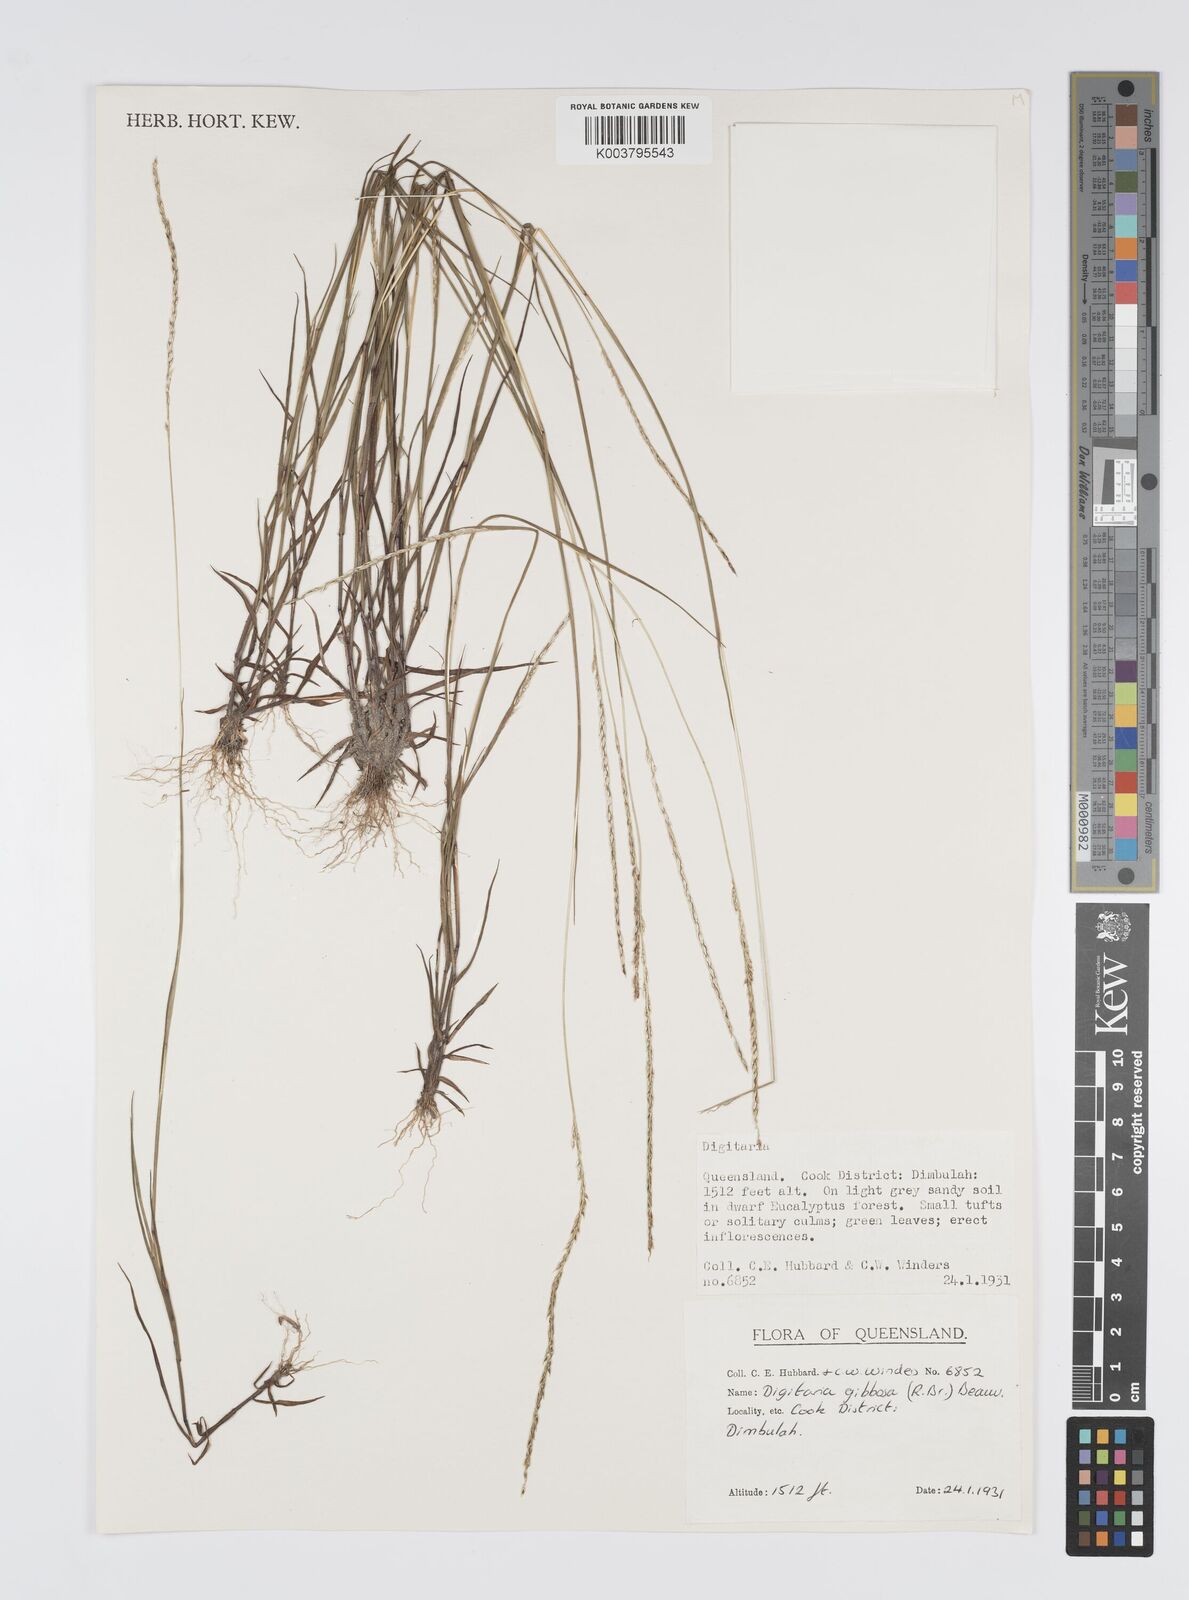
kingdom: Plantae
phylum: Tracheophyta
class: Liliopsida
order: Poales
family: Poaceae
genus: Digitaria
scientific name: Digitaria gibbosa
